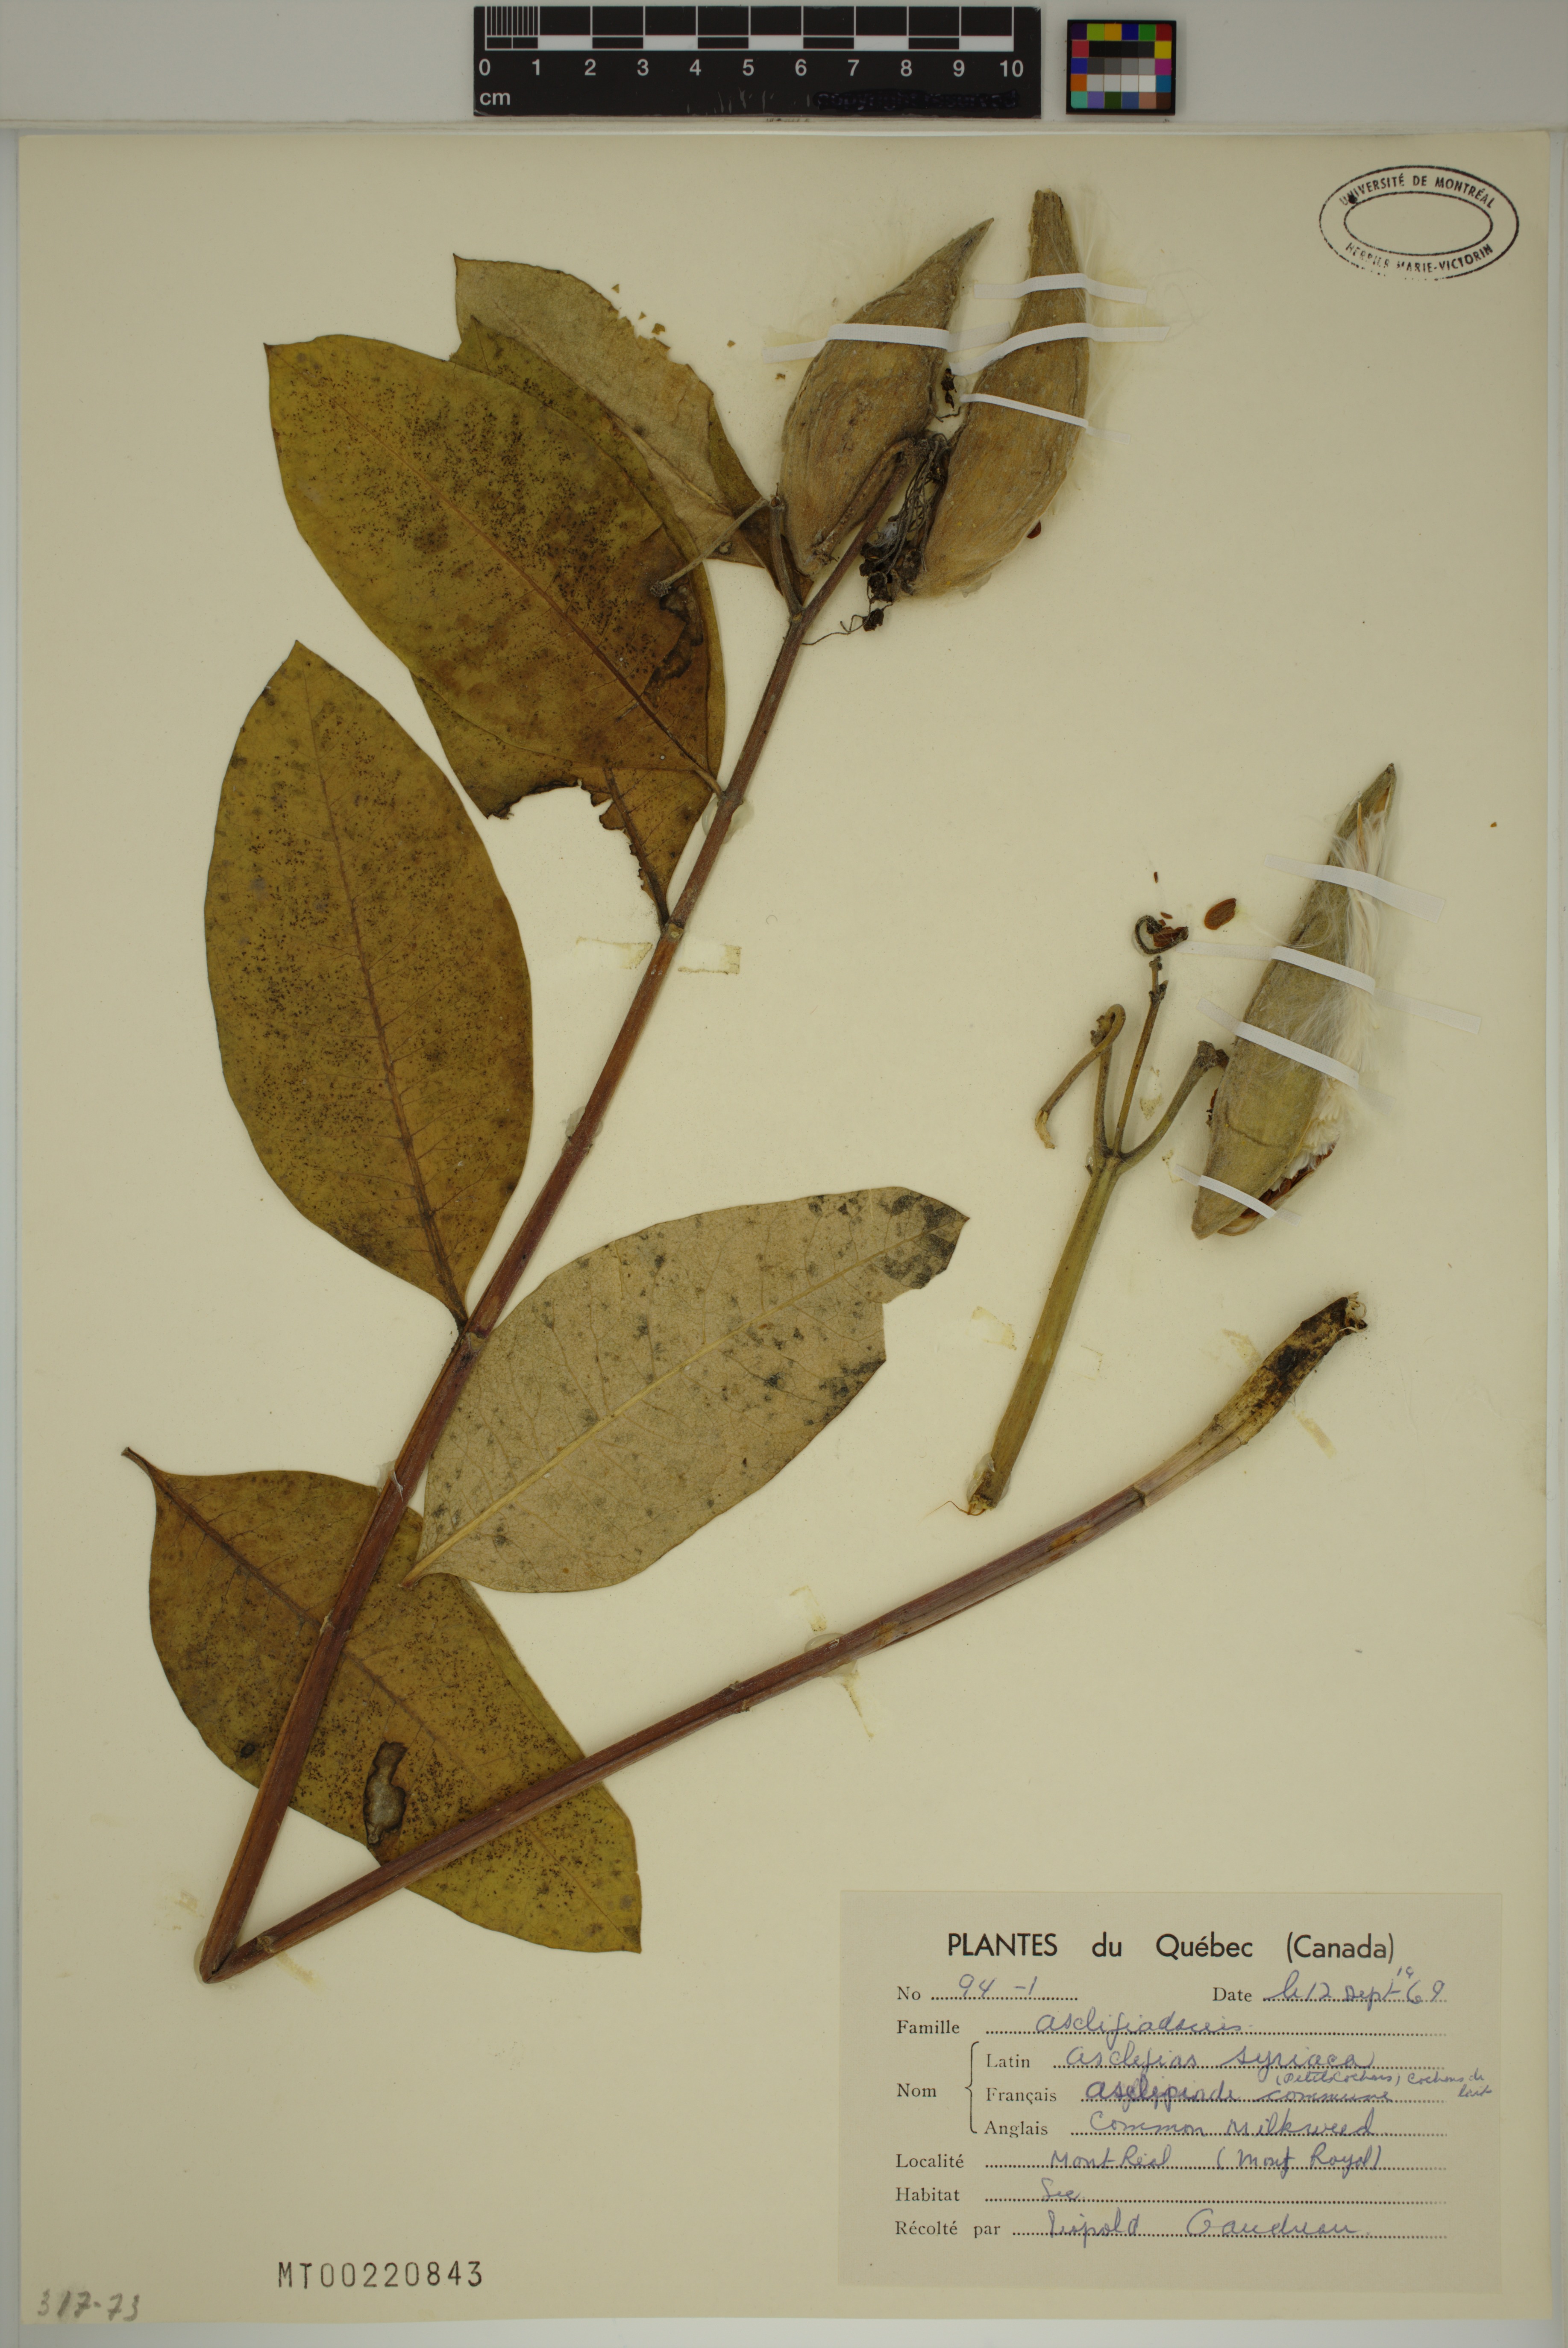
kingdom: Plantae
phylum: Tracheophyta
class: Magnoliopsida
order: Gentianales
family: Apocynaceae
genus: Asclepias
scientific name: Asclepias syriaca
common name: Common milkweed
